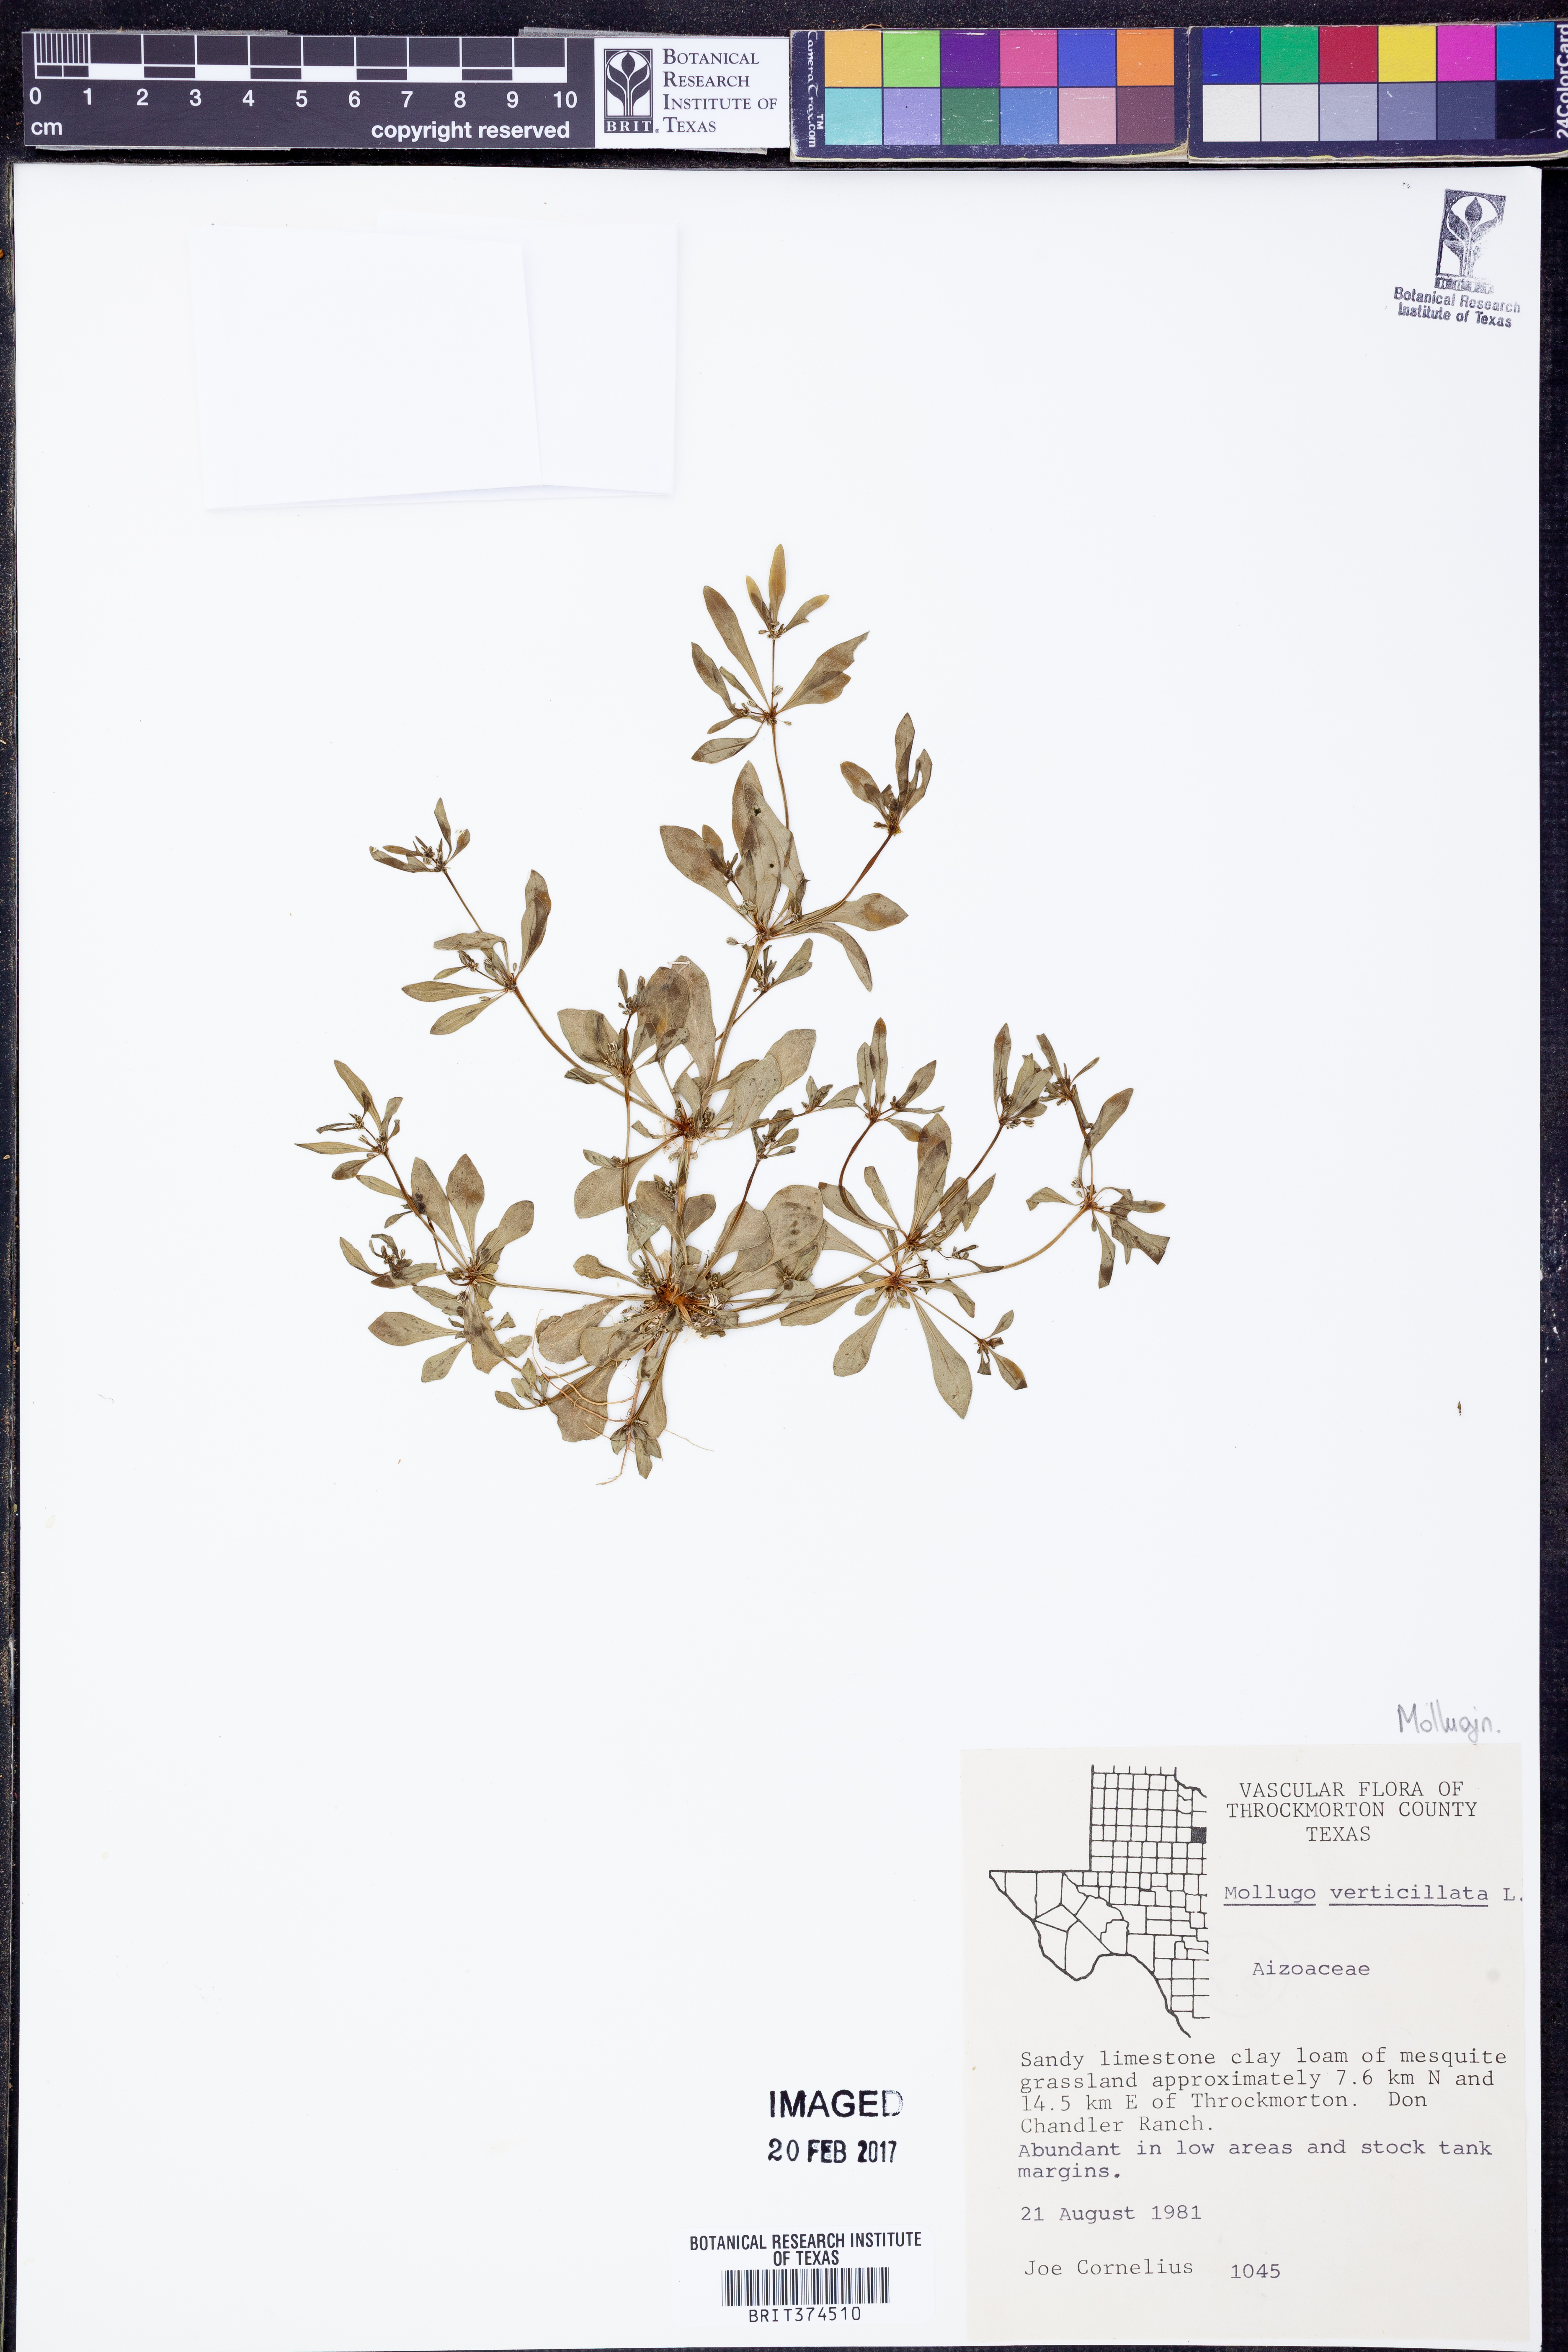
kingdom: Plantae
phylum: Tracheophyta
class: Magnoliopsida
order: Caryophyllales
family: Molluginaceae
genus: Mollugo
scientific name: Mollugo verticillata
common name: Green carpetweed
